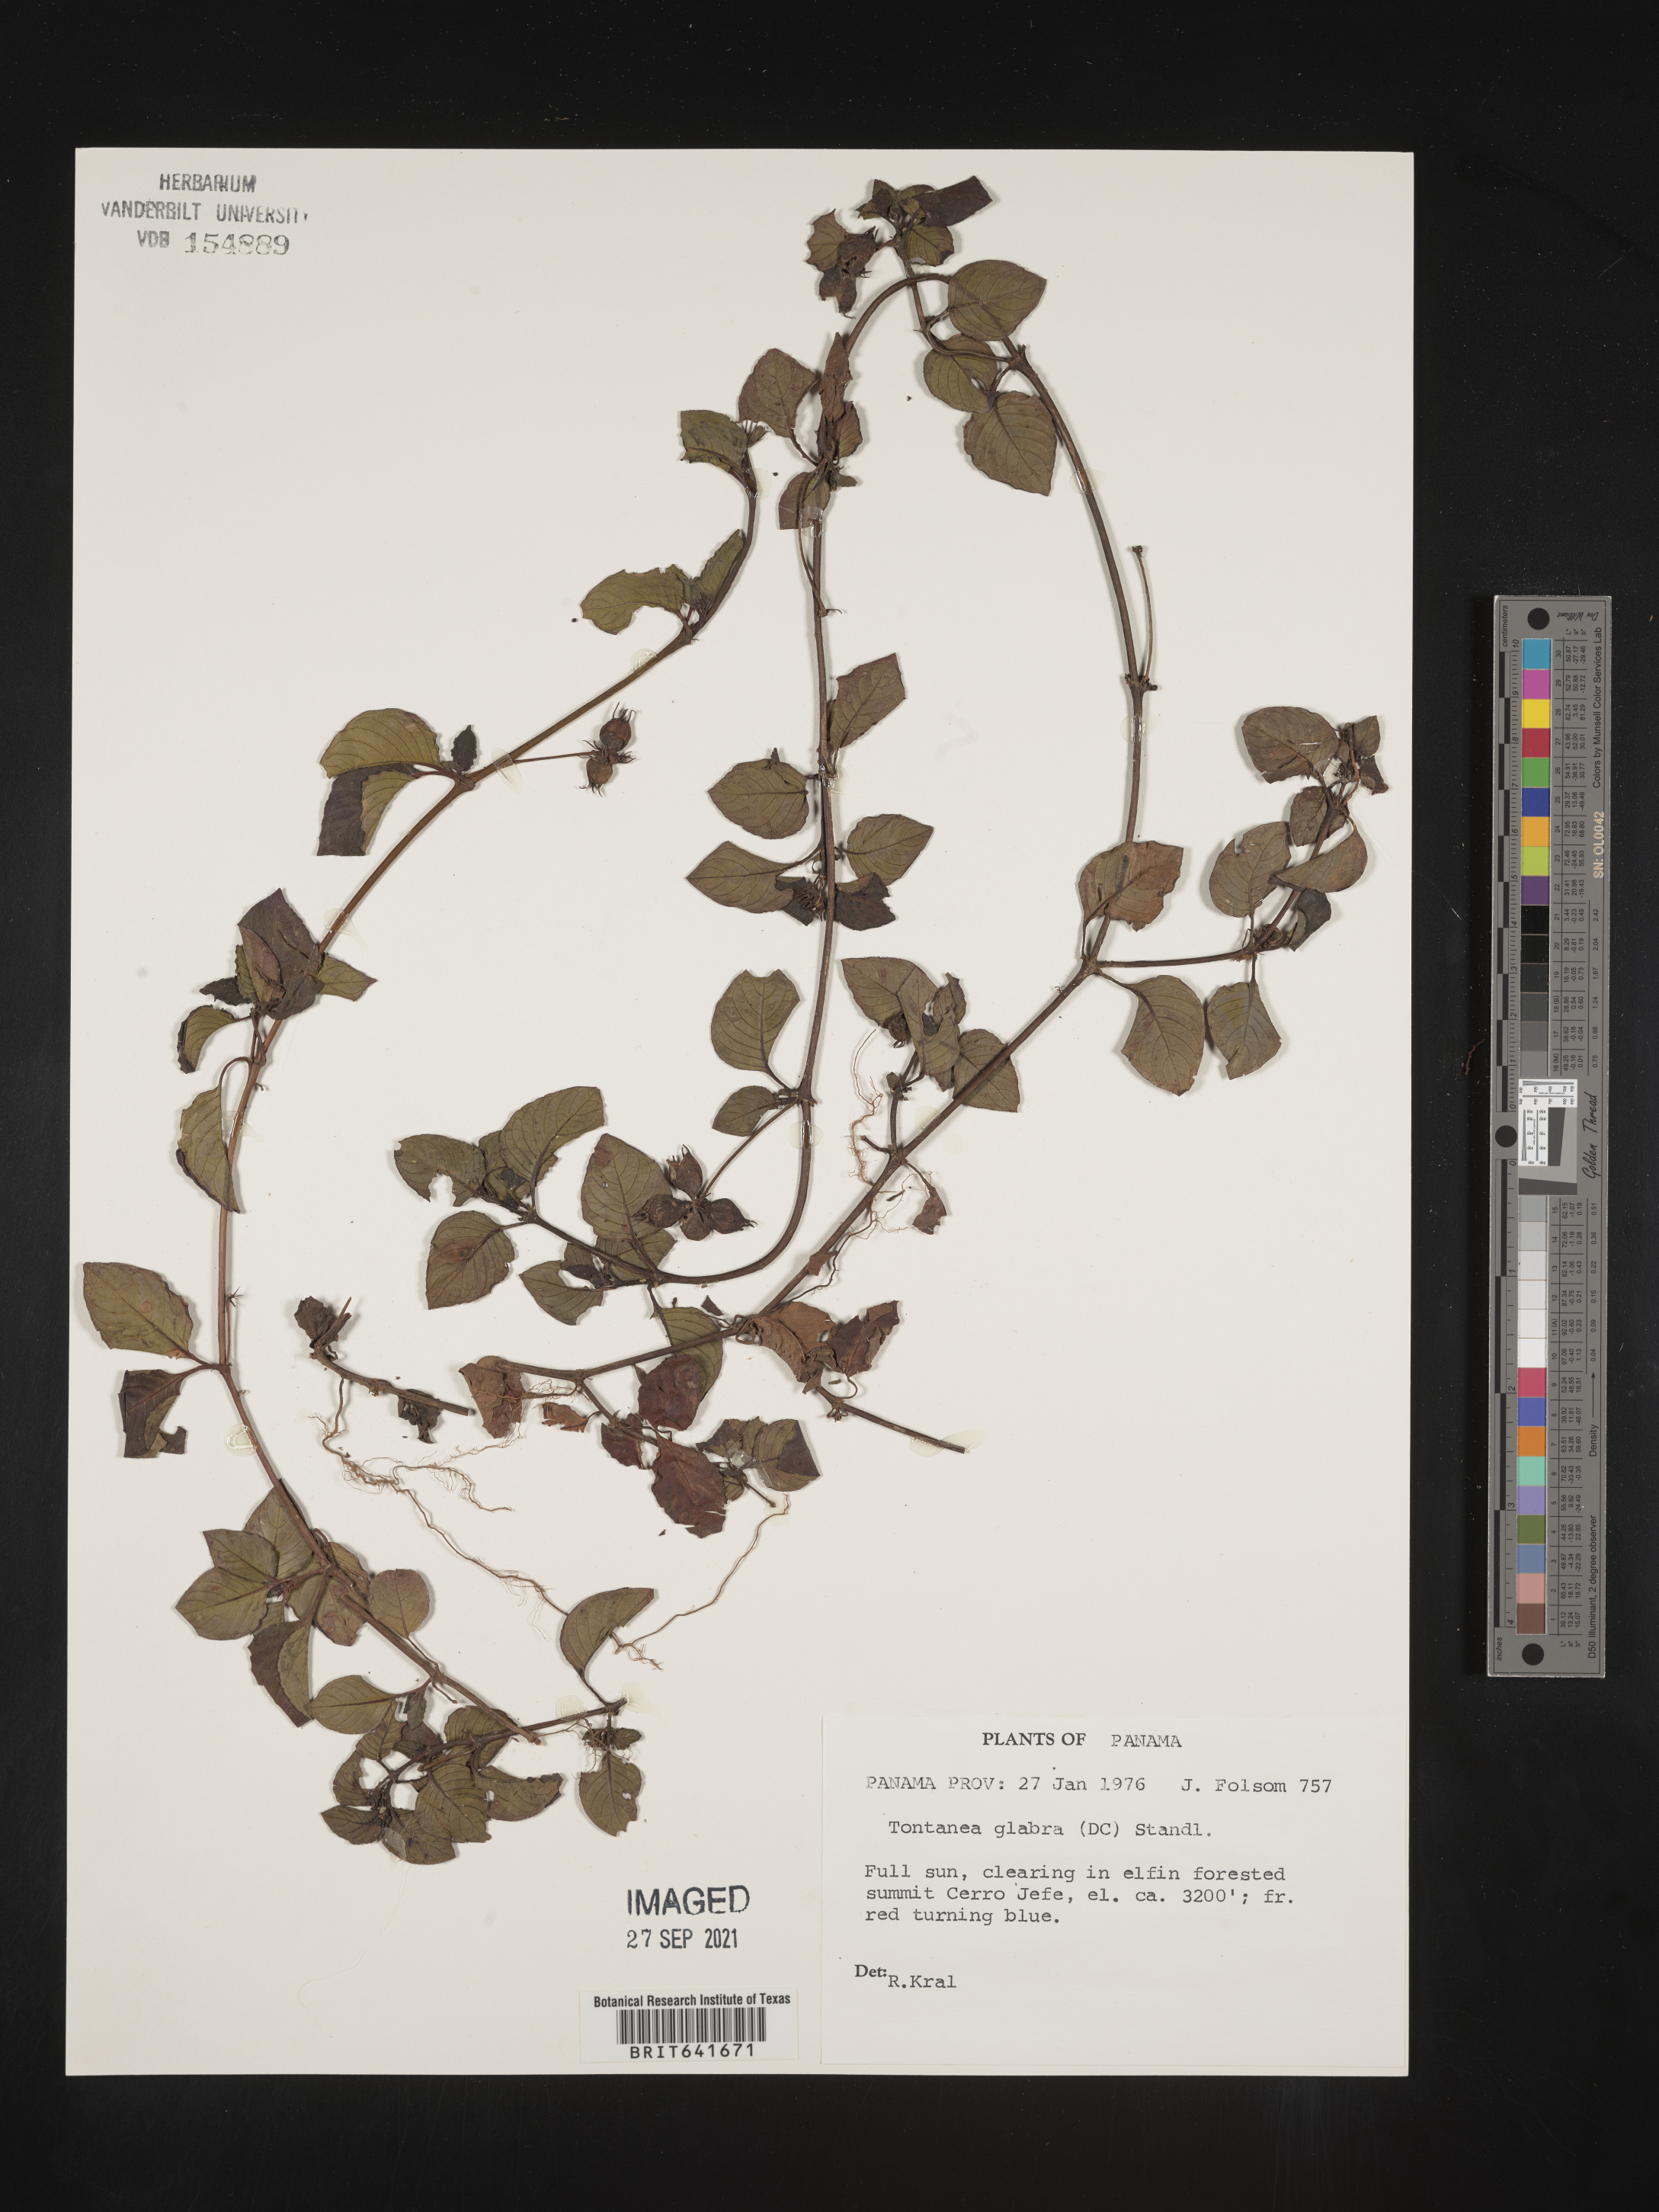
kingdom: Plantae
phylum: Tracheophyta
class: Magnoliopsida
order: Gentianales
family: Rubiaceae
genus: Coccocypselum
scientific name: Coccocypselum
